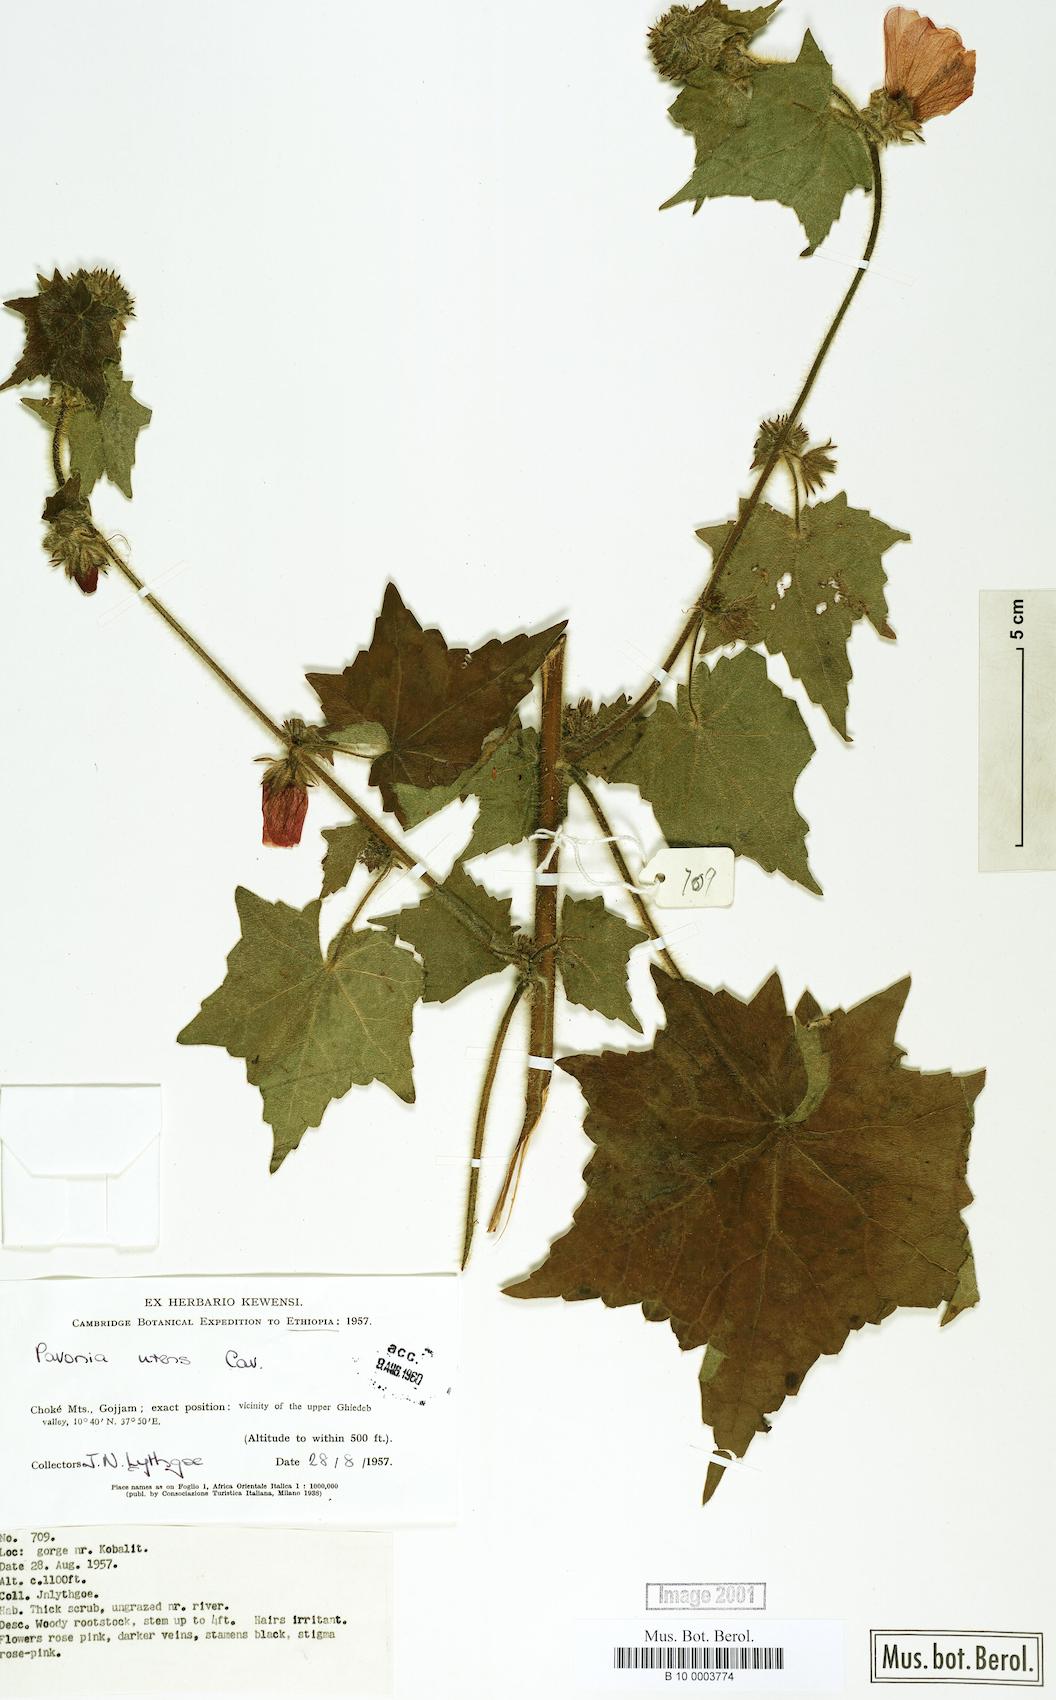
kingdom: Plantae
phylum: Tracheophyta
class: Magnoliopsida
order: Malvales
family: Malvaceae
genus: Pavonia
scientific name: Pavonia urens
